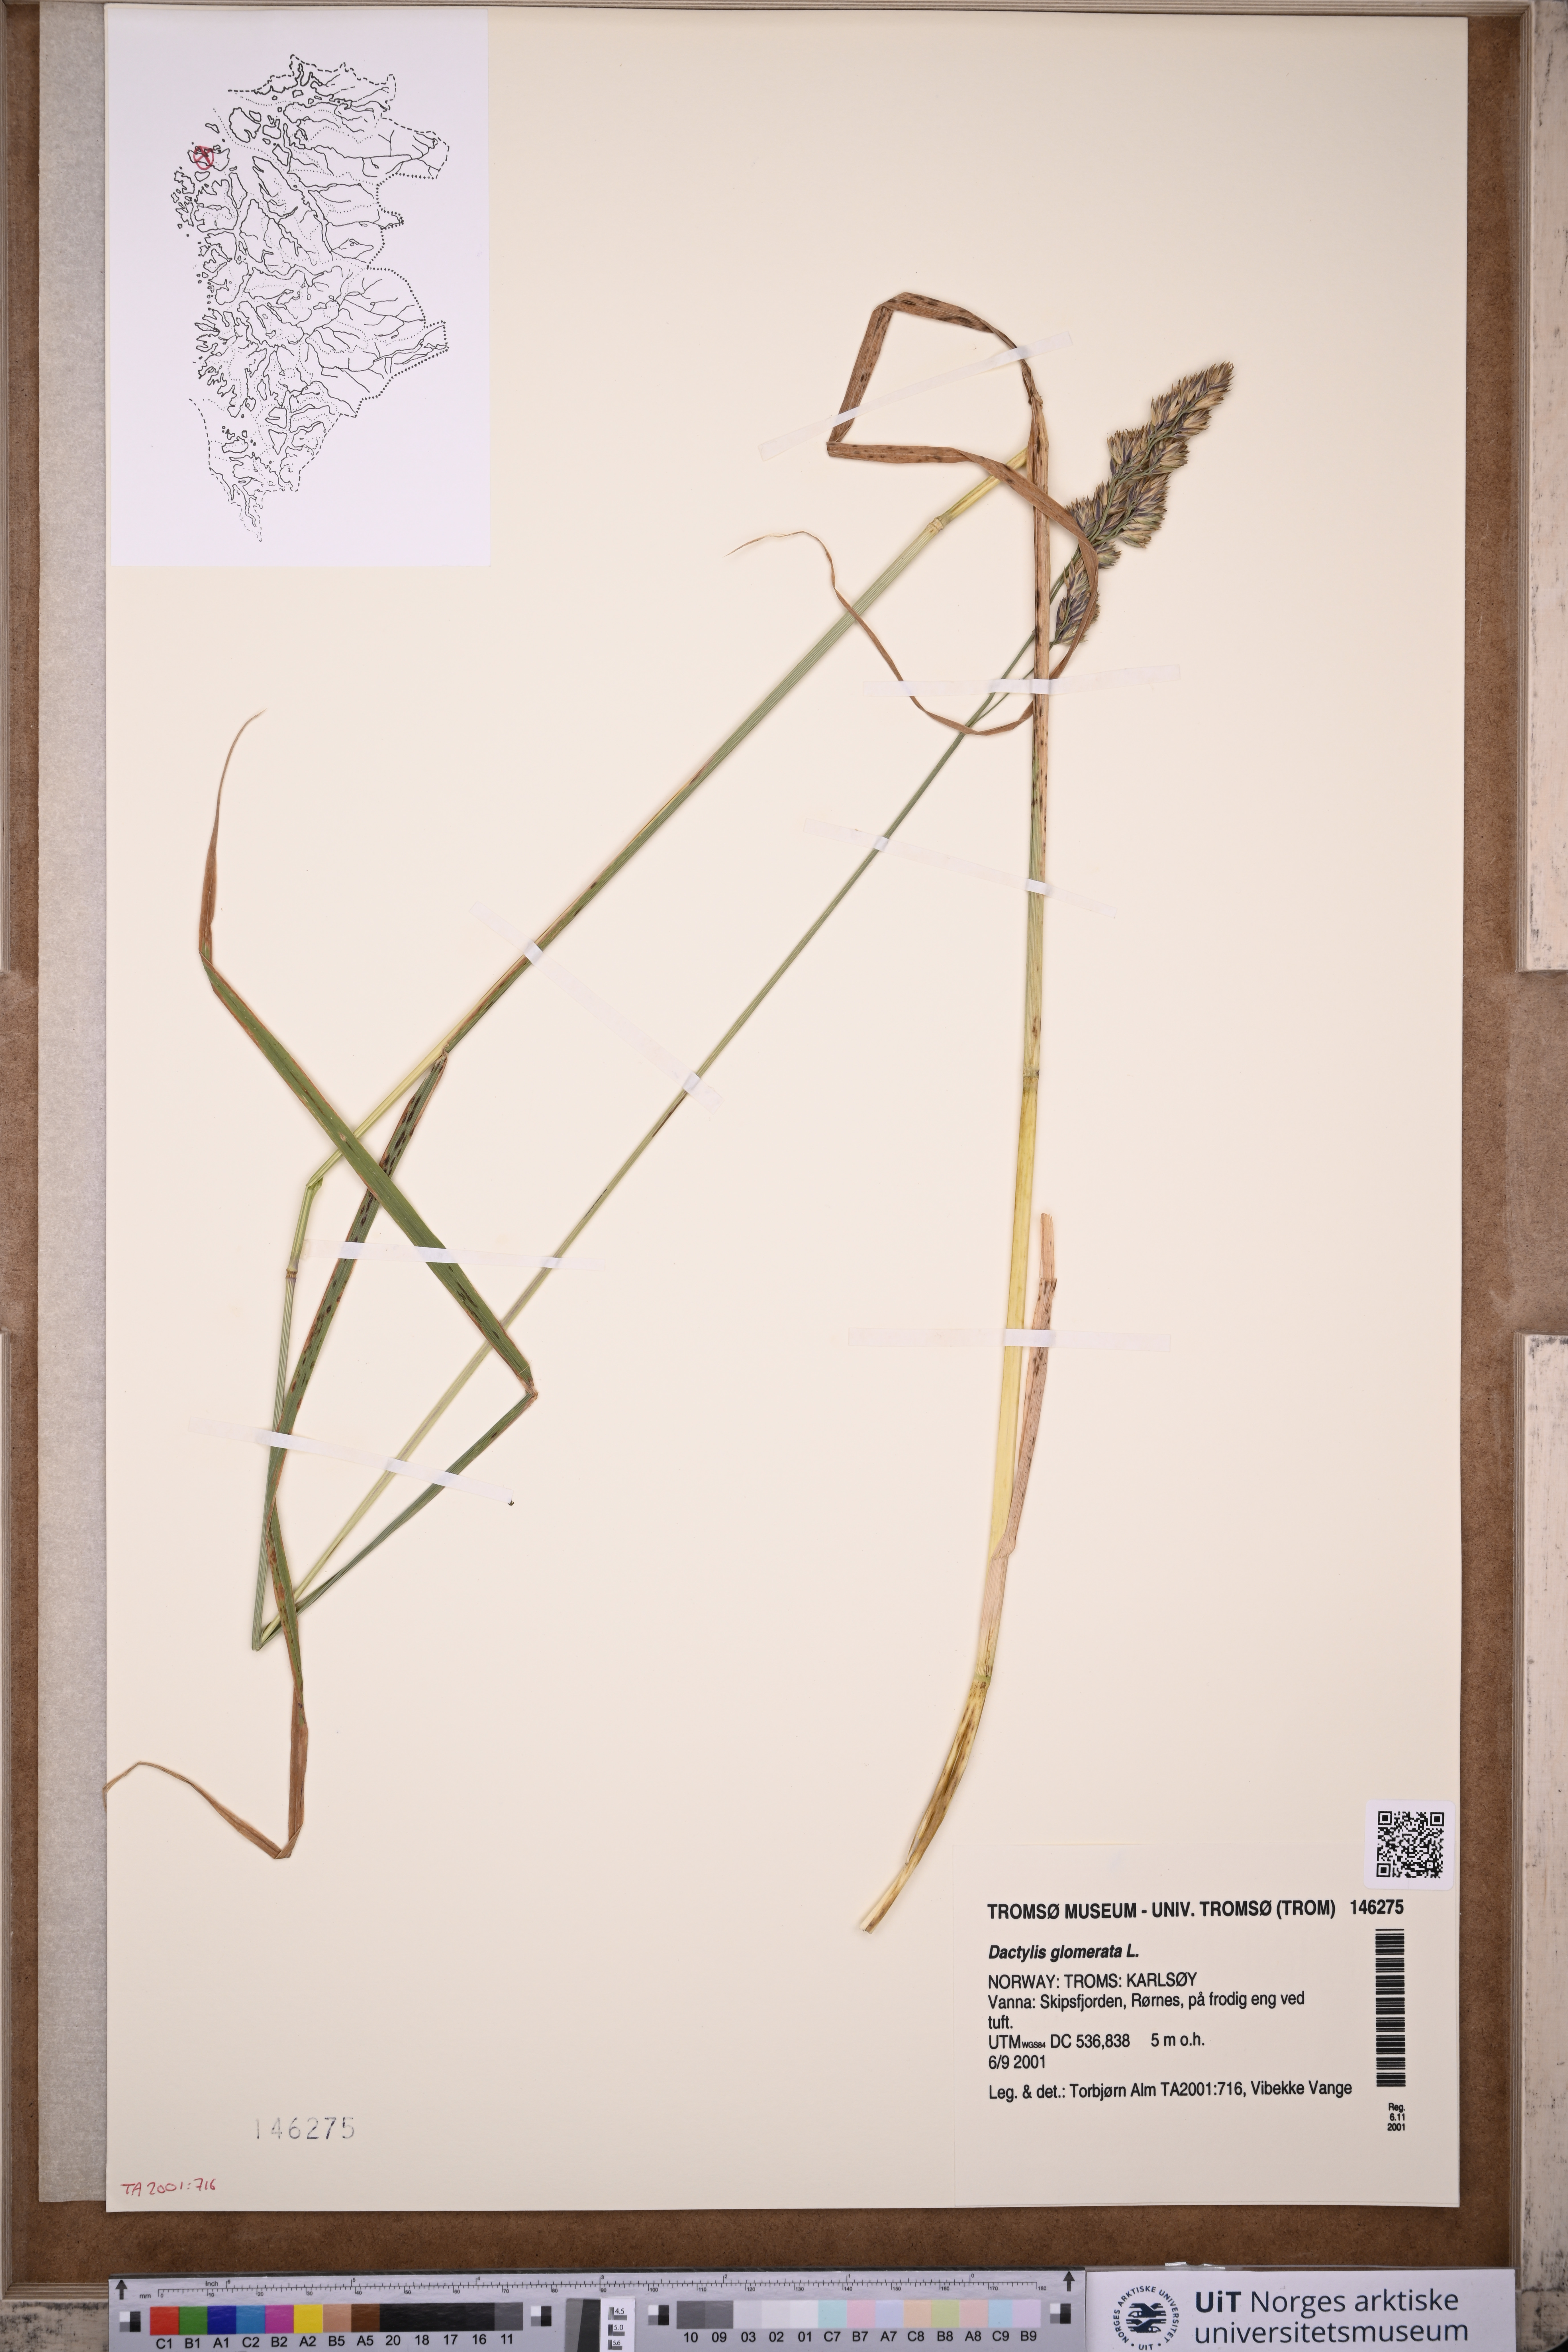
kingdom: Plantae
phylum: Tracheophyta
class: Liliopsida
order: Poales
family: Poaceae
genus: Dactylis
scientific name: Dactylis glomerata
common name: Orchardgrass
